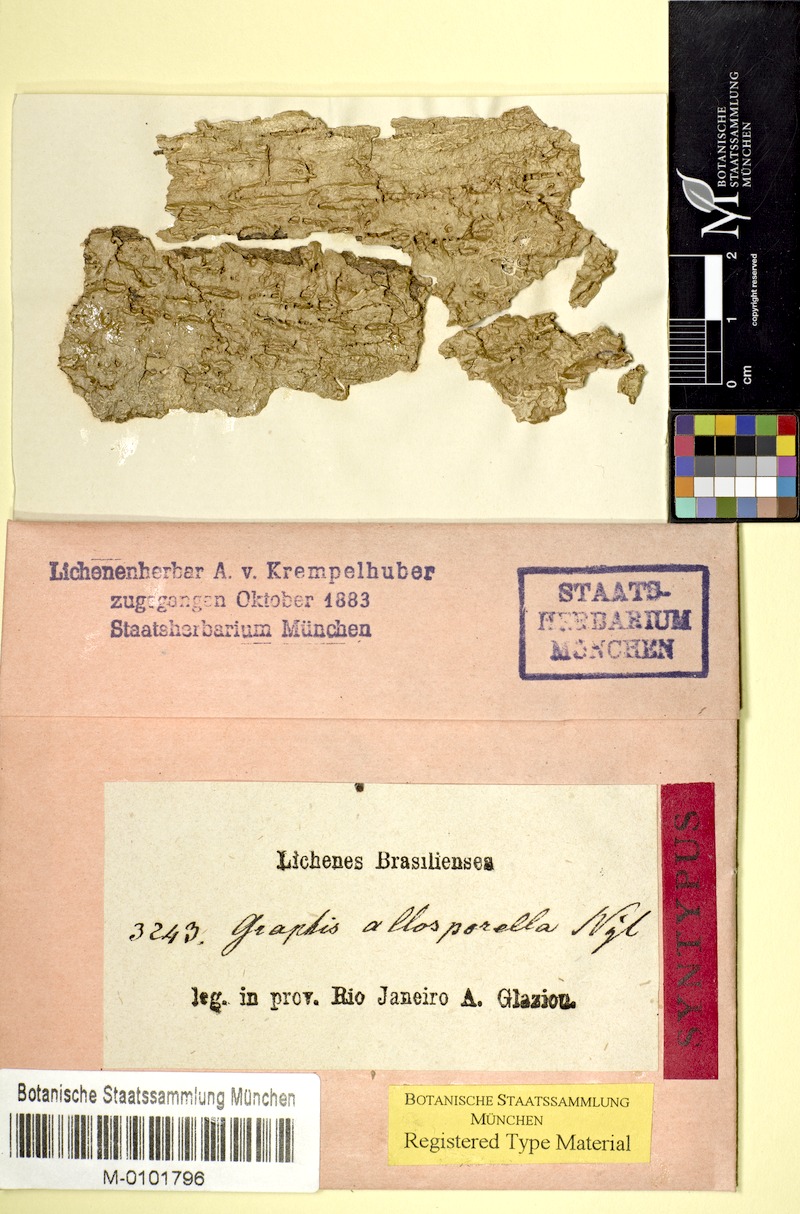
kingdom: Fungi
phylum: Ascomycota
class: Lecanoromycetes
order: Ostropales
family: Graphidaceae
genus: Platythecium
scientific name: Platythecium allosporellum
